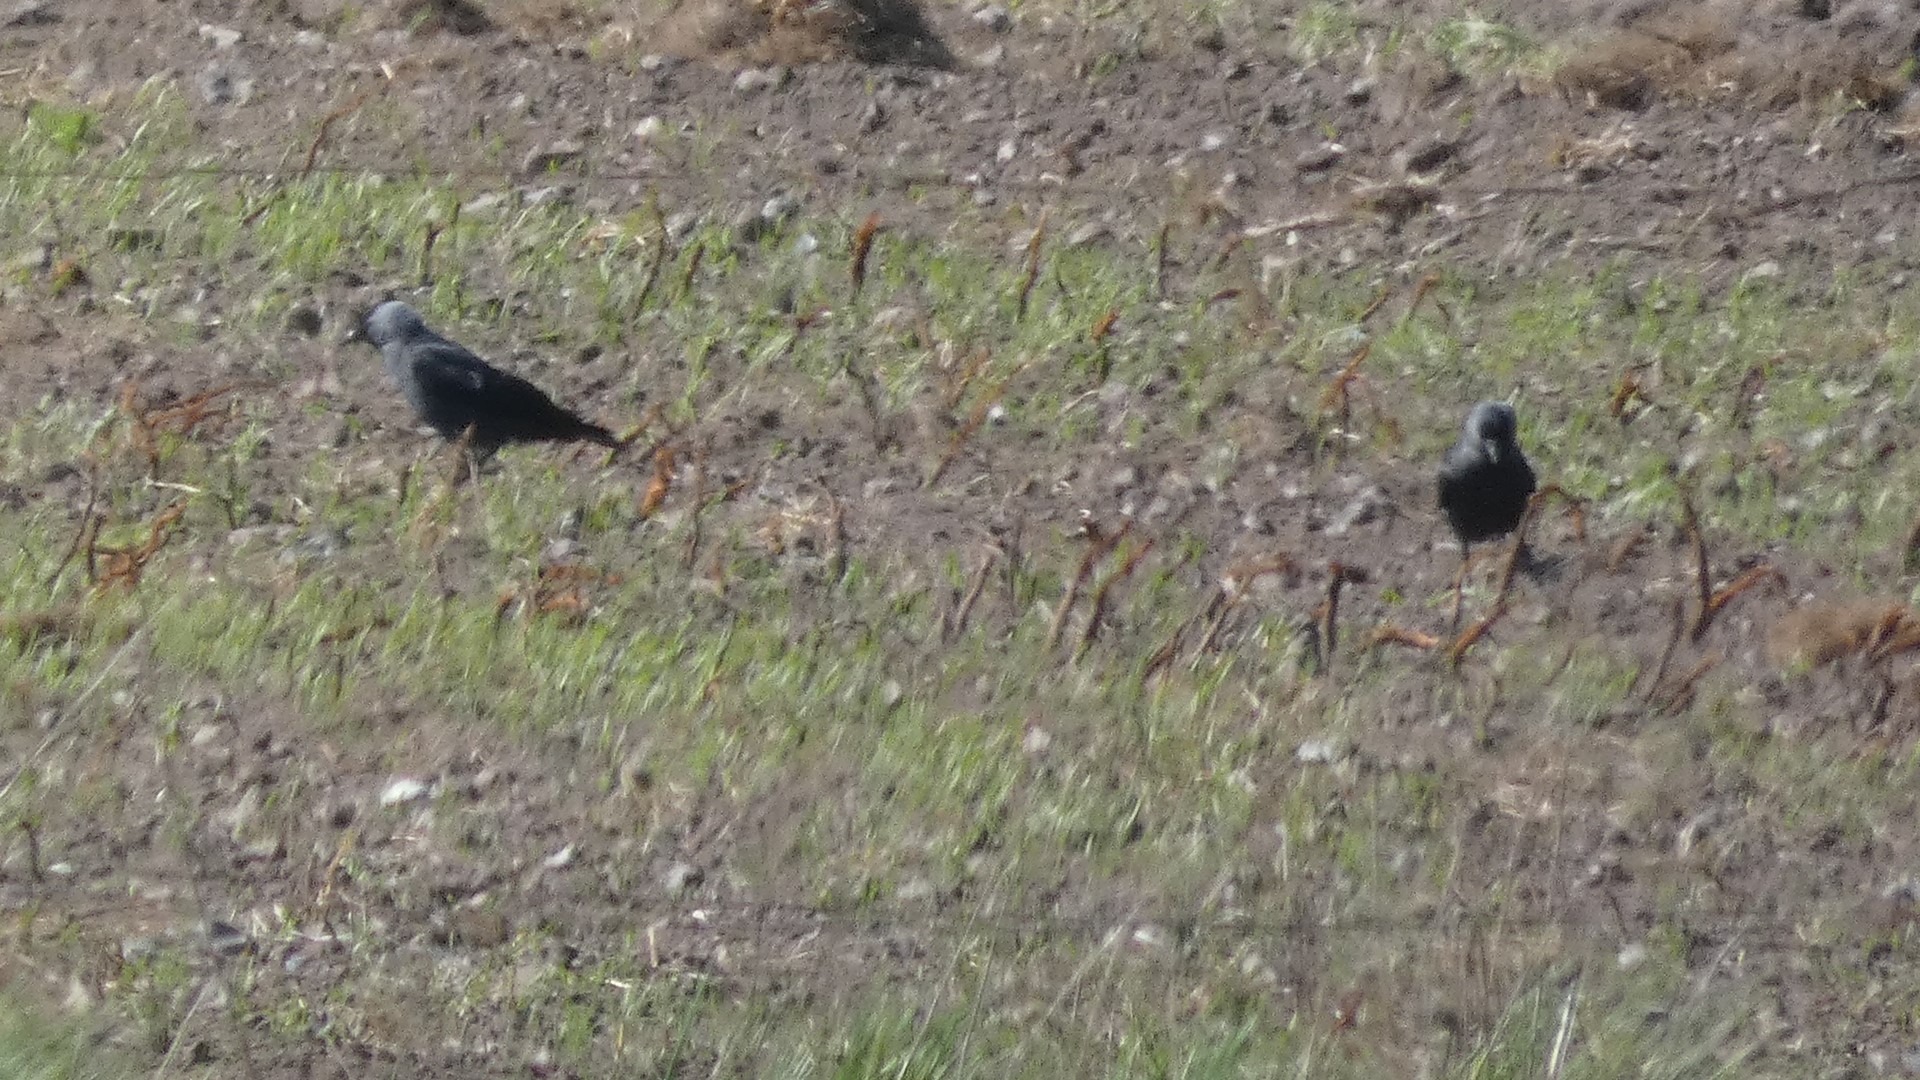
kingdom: Animalia
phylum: Chordata
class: Aves
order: Passeriformes
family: Corvidae
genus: Coloeus
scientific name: Coloeus monedula
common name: Allike
